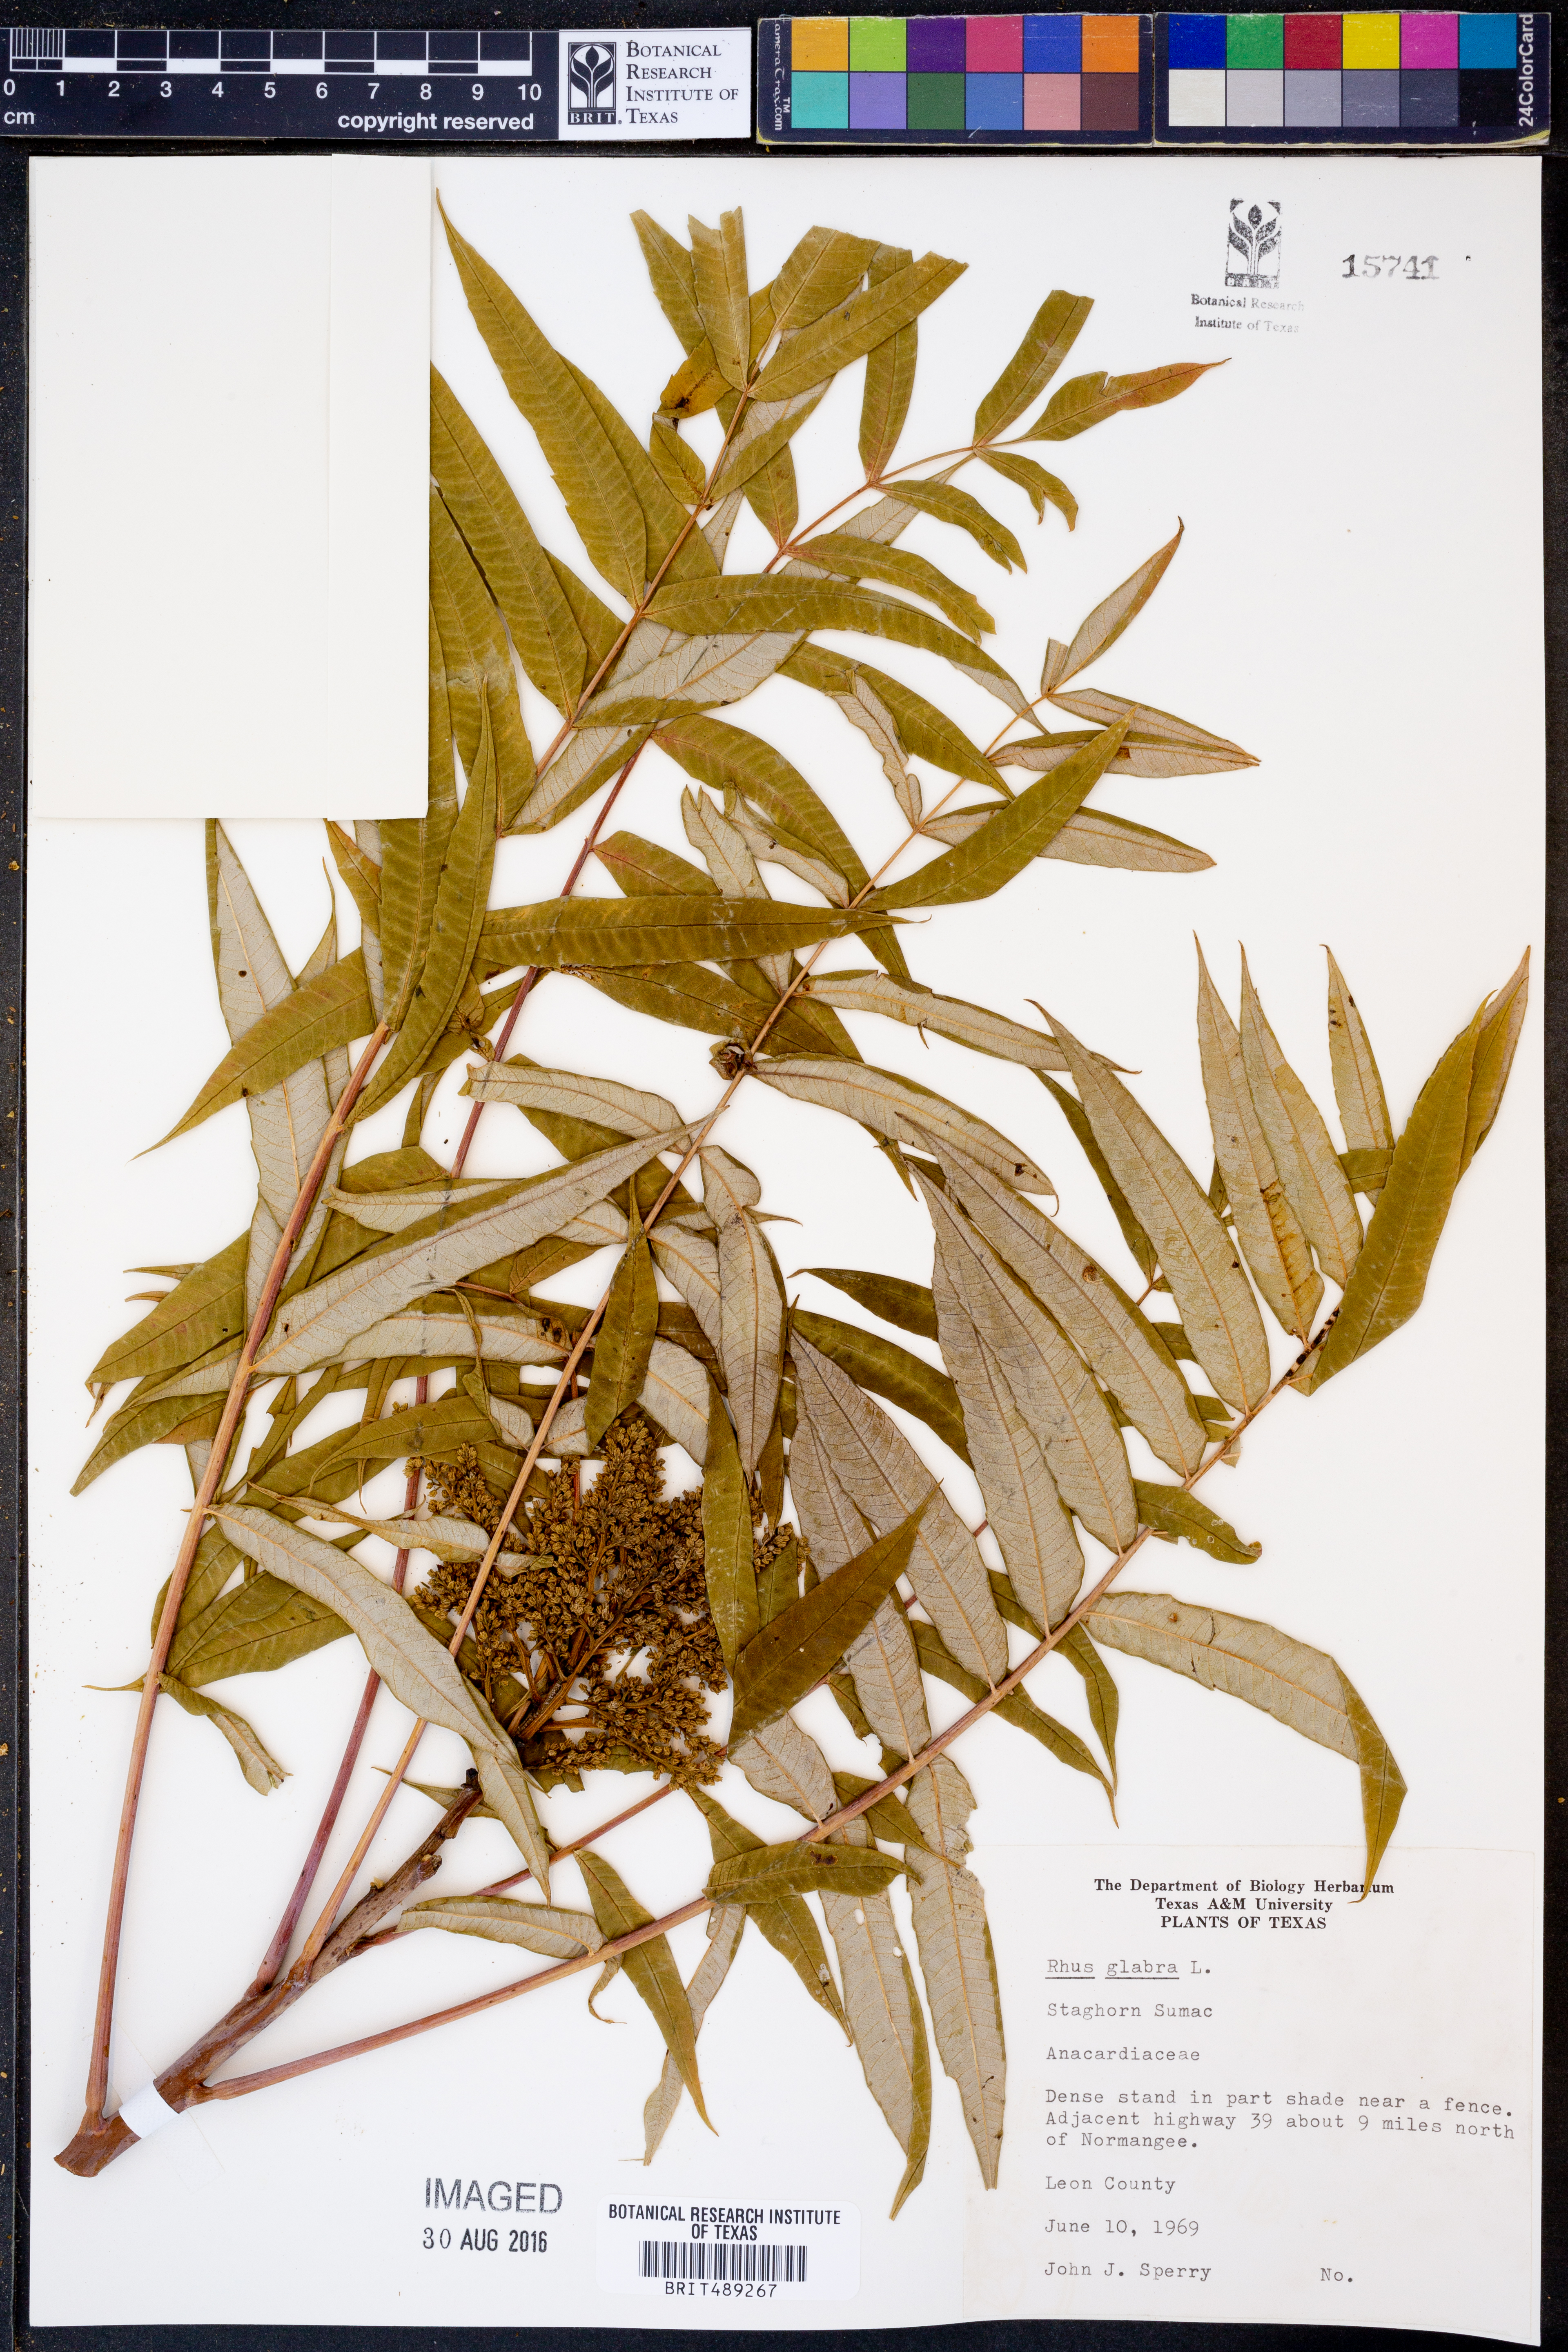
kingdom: Plantae
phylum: Tracheophyta
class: Magnoliopsida
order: Sapindales
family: Anacardiaceae
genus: Rhus
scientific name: Rhus glabra
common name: Scarlet sumac
